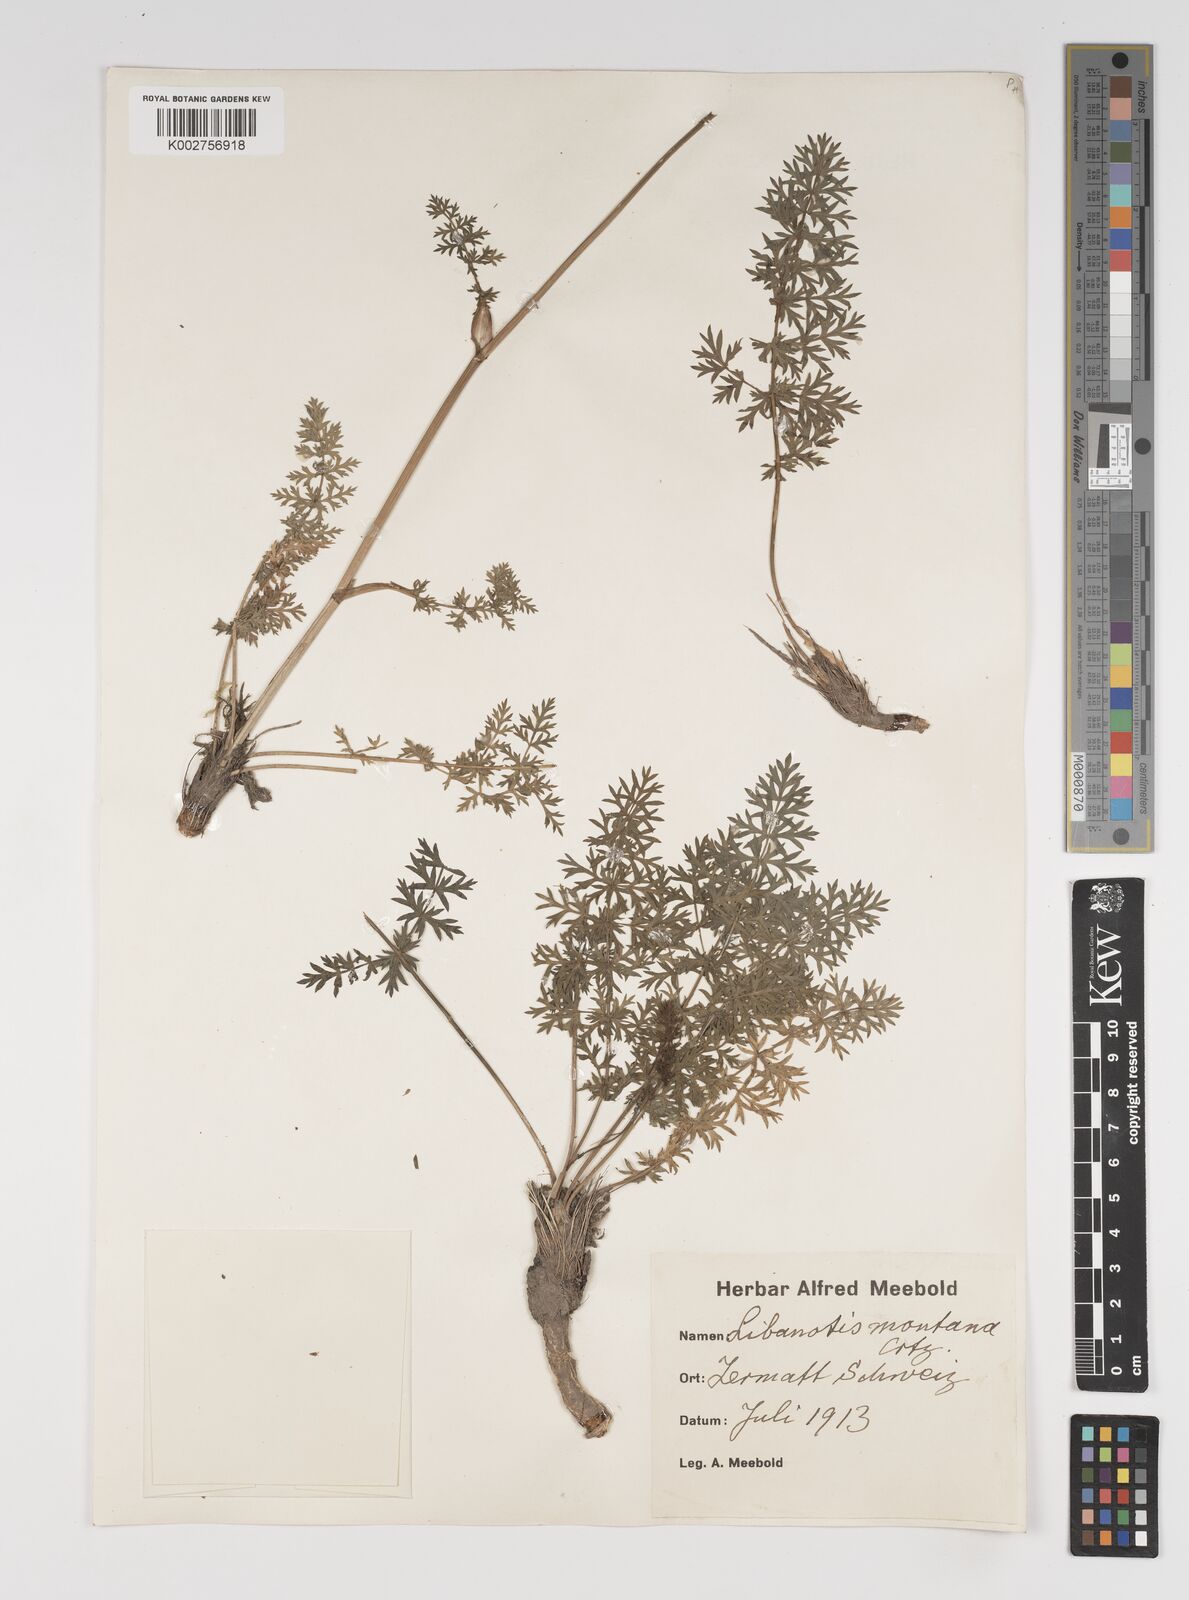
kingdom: Plantae
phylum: Tracheophyta
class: Magnoliopsida
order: Apiales
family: Apiaceae
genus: Seseli
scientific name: Seseli libanotis
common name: Mooncarrot
